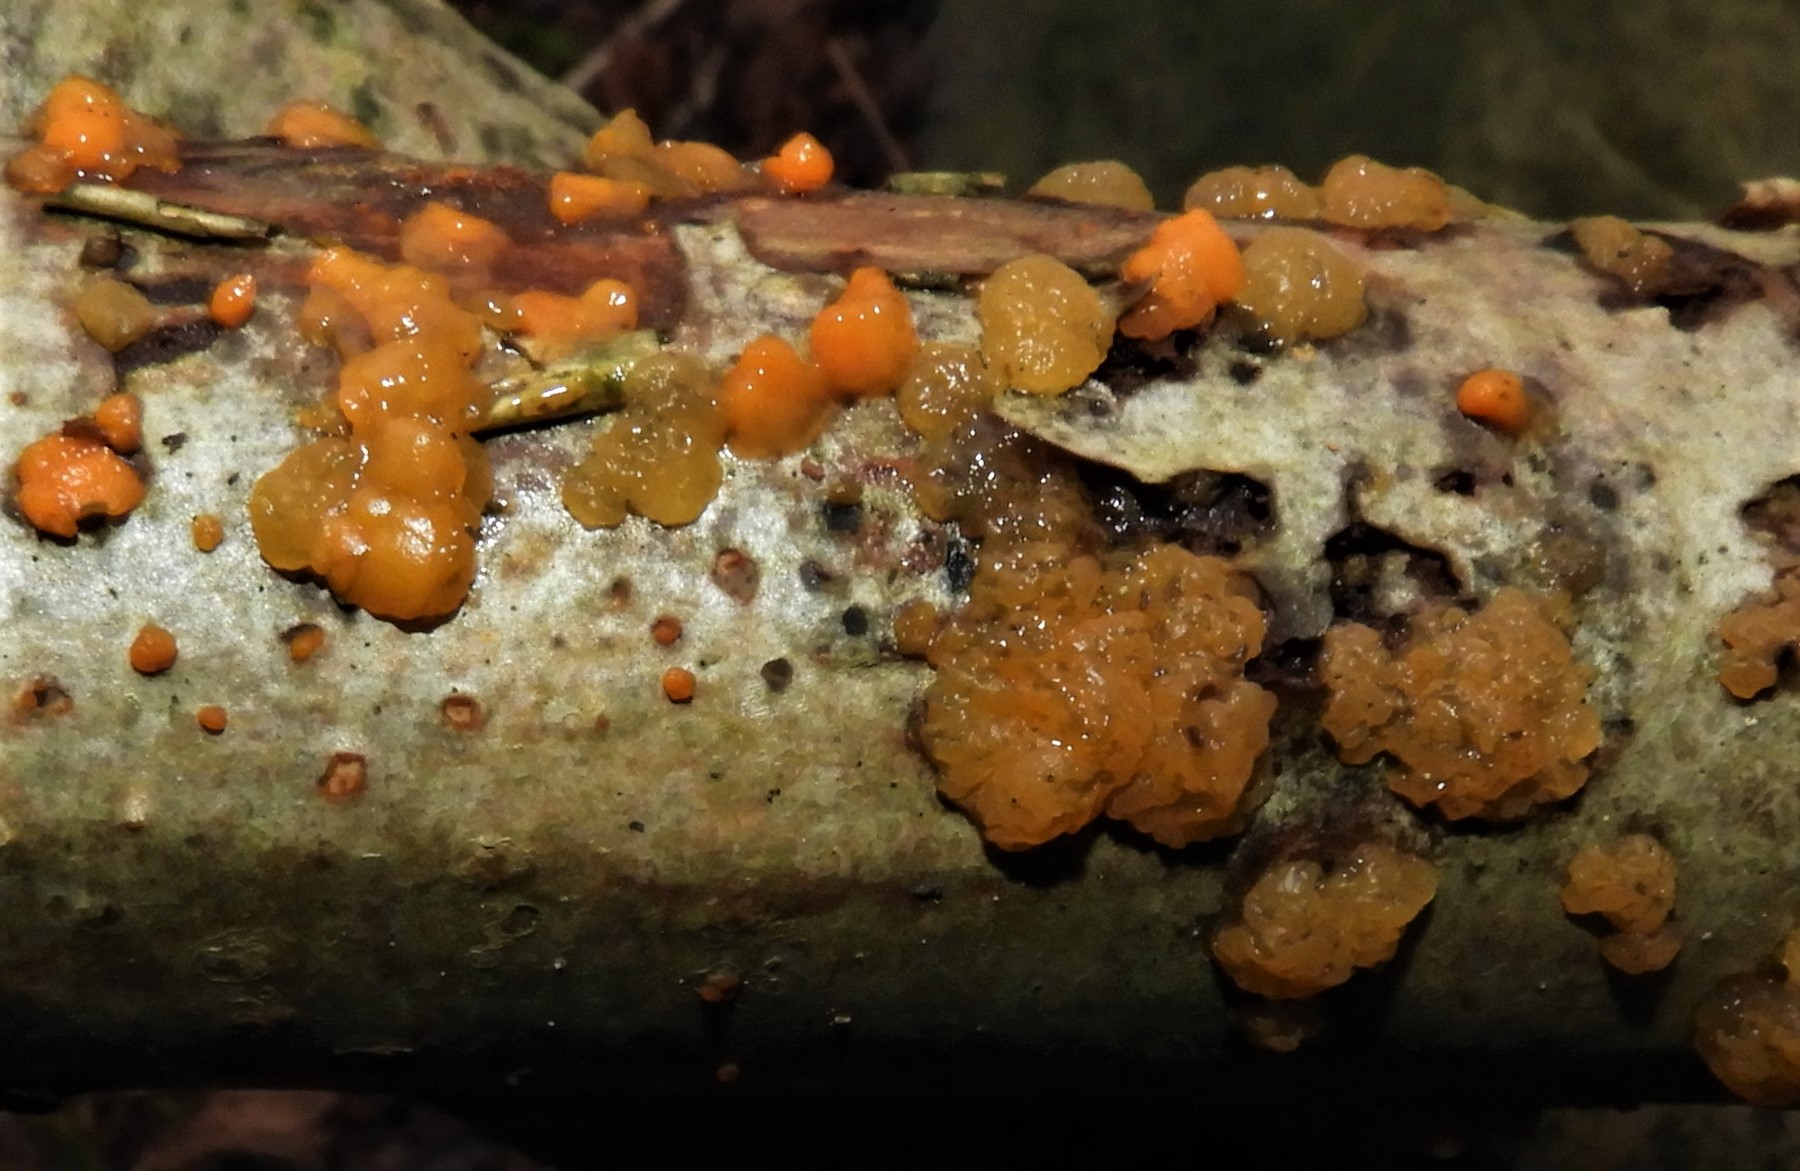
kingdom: Fungi
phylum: Basidiomycota
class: Dacrymycetes
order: Dacrymycetales
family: Dacrymycetaceae
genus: Dacrymyces
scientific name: Dacrymyces stillatus
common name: almindelig tåresvamp
